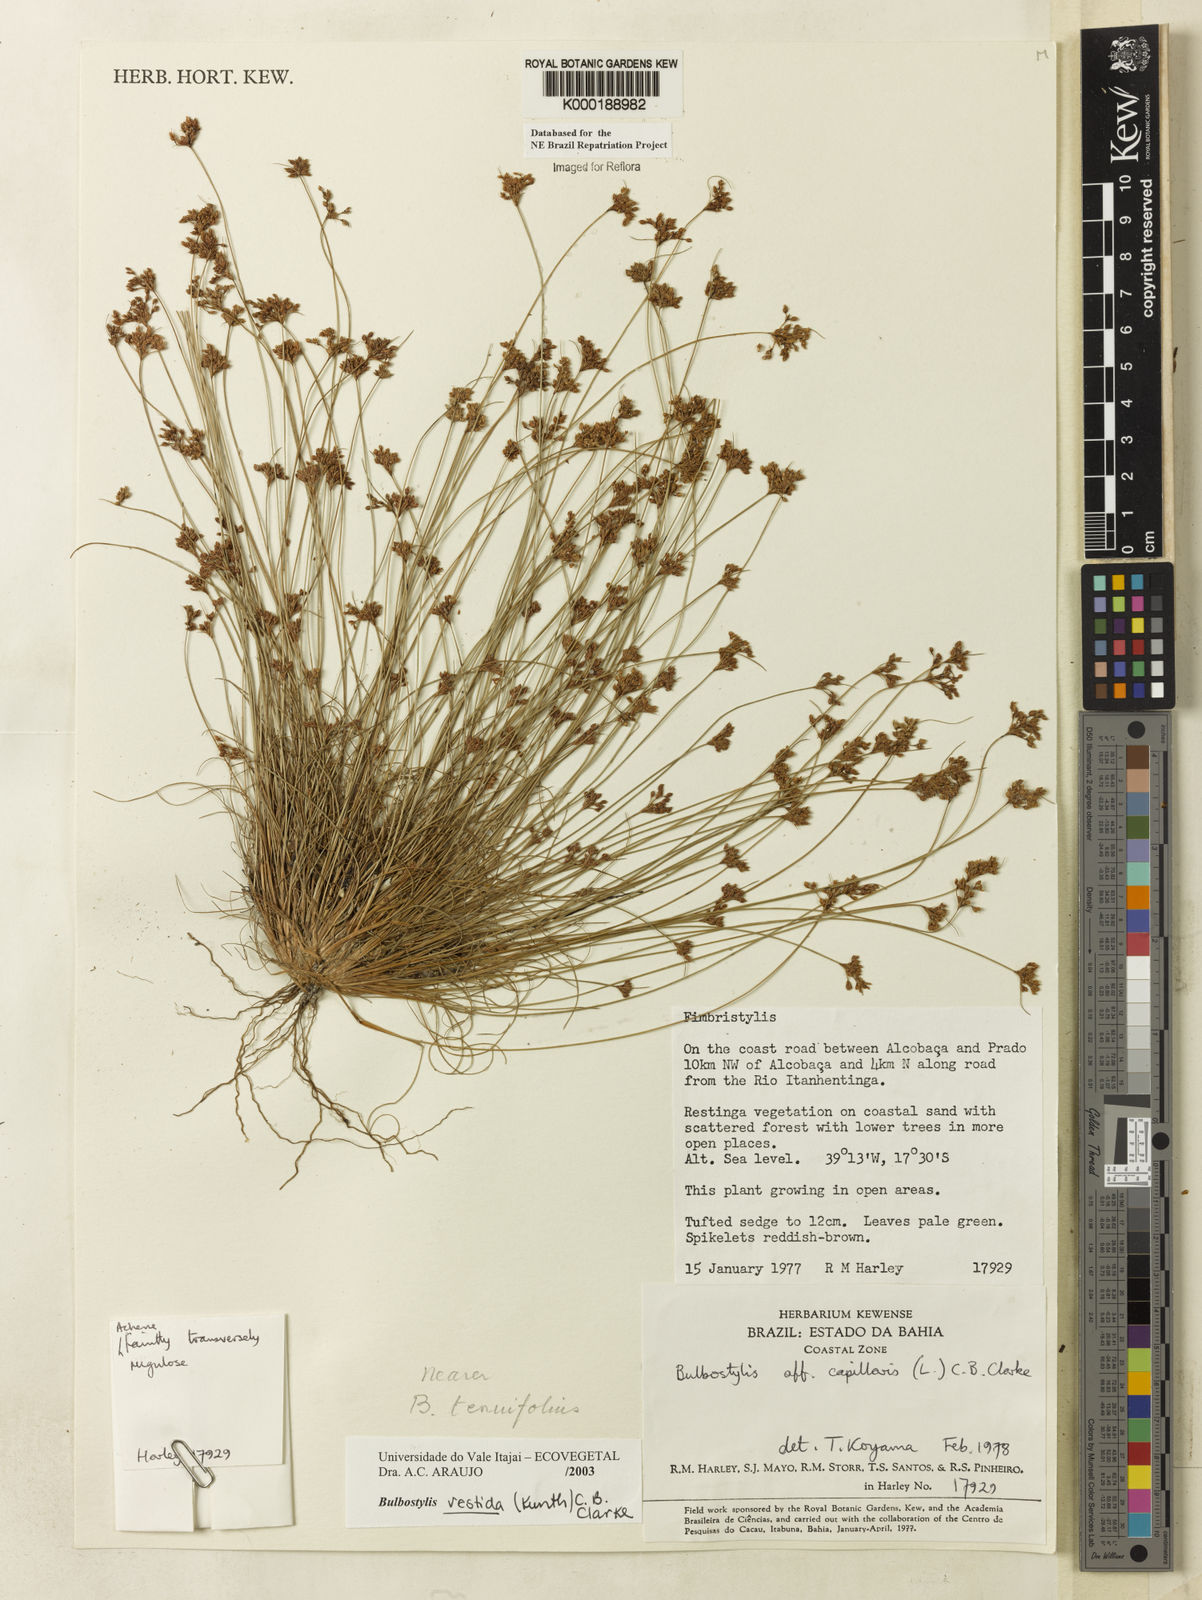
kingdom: Plantae
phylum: Tracheophyta
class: Liliopsida
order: Poales
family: Cyperaceae
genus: Bulbostylis
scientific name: Bulbostylis vestita
